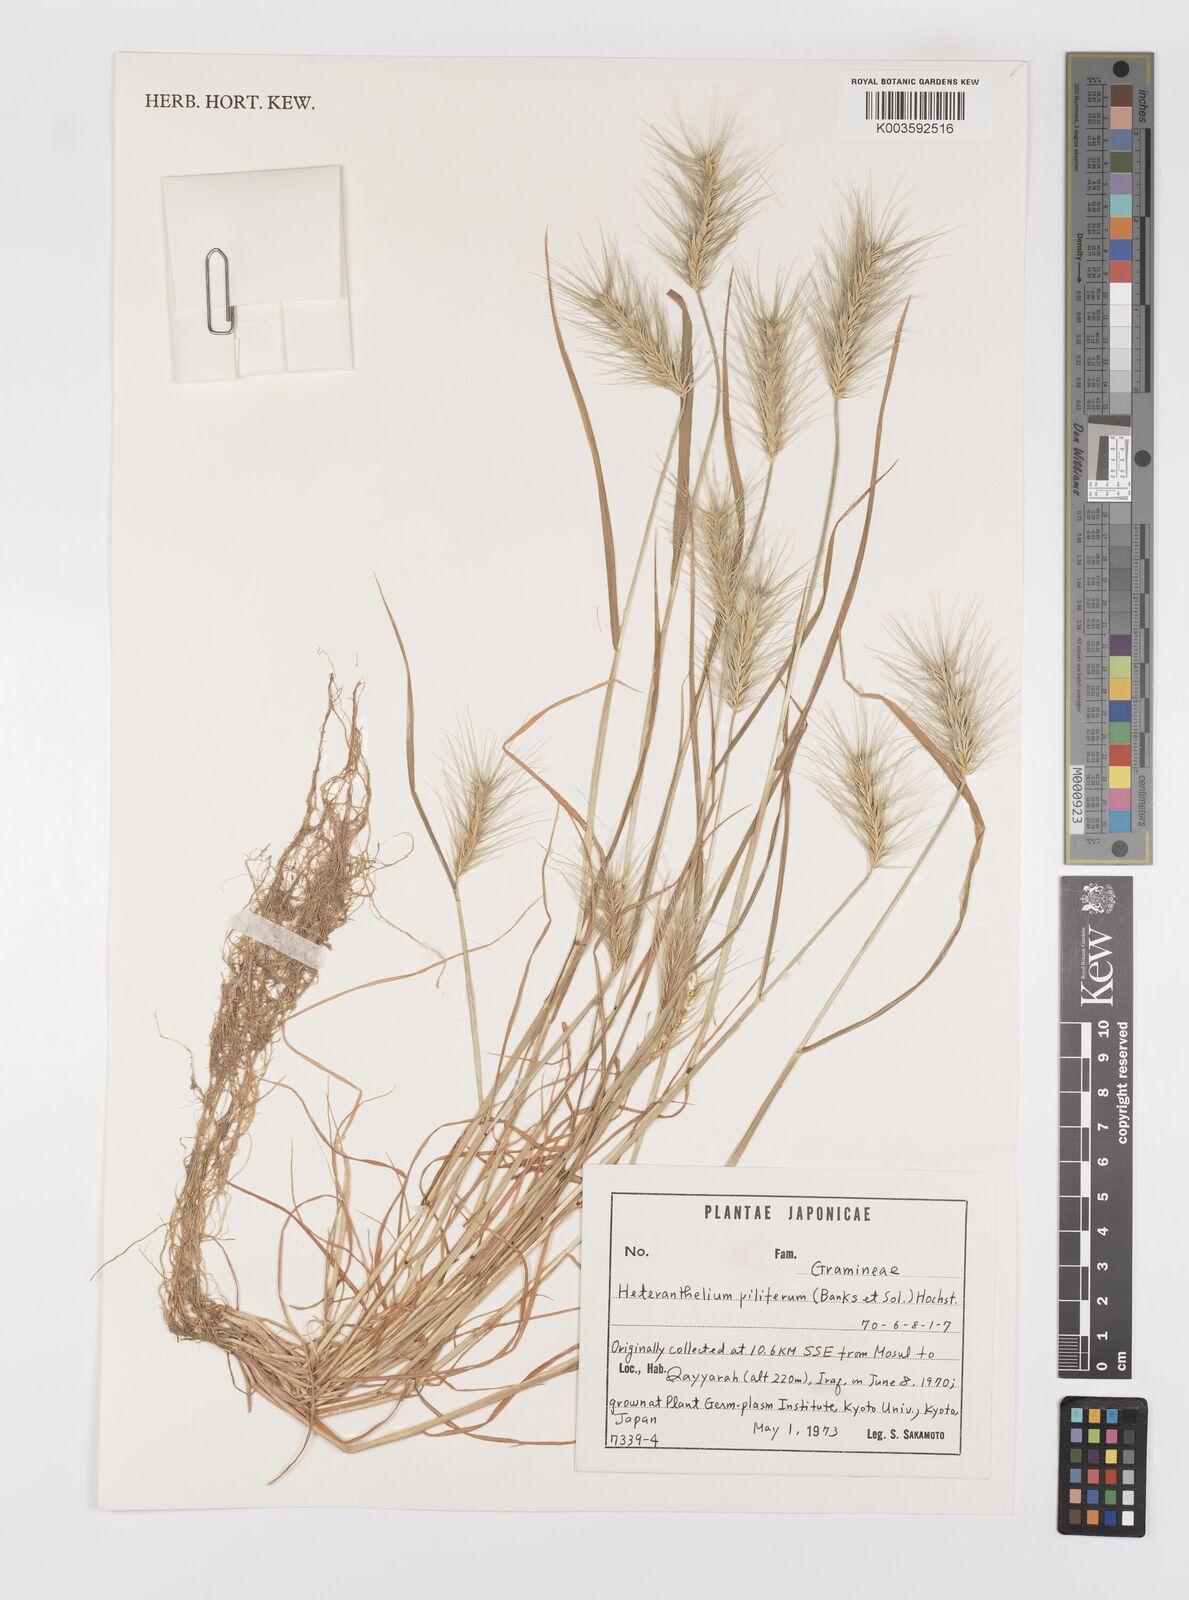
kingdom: Plantae
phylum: Tracheophyta
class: Liliopsida
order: Poales
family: Poaceae
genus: Heteranthelium
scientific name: Heteranthelium piliferum
